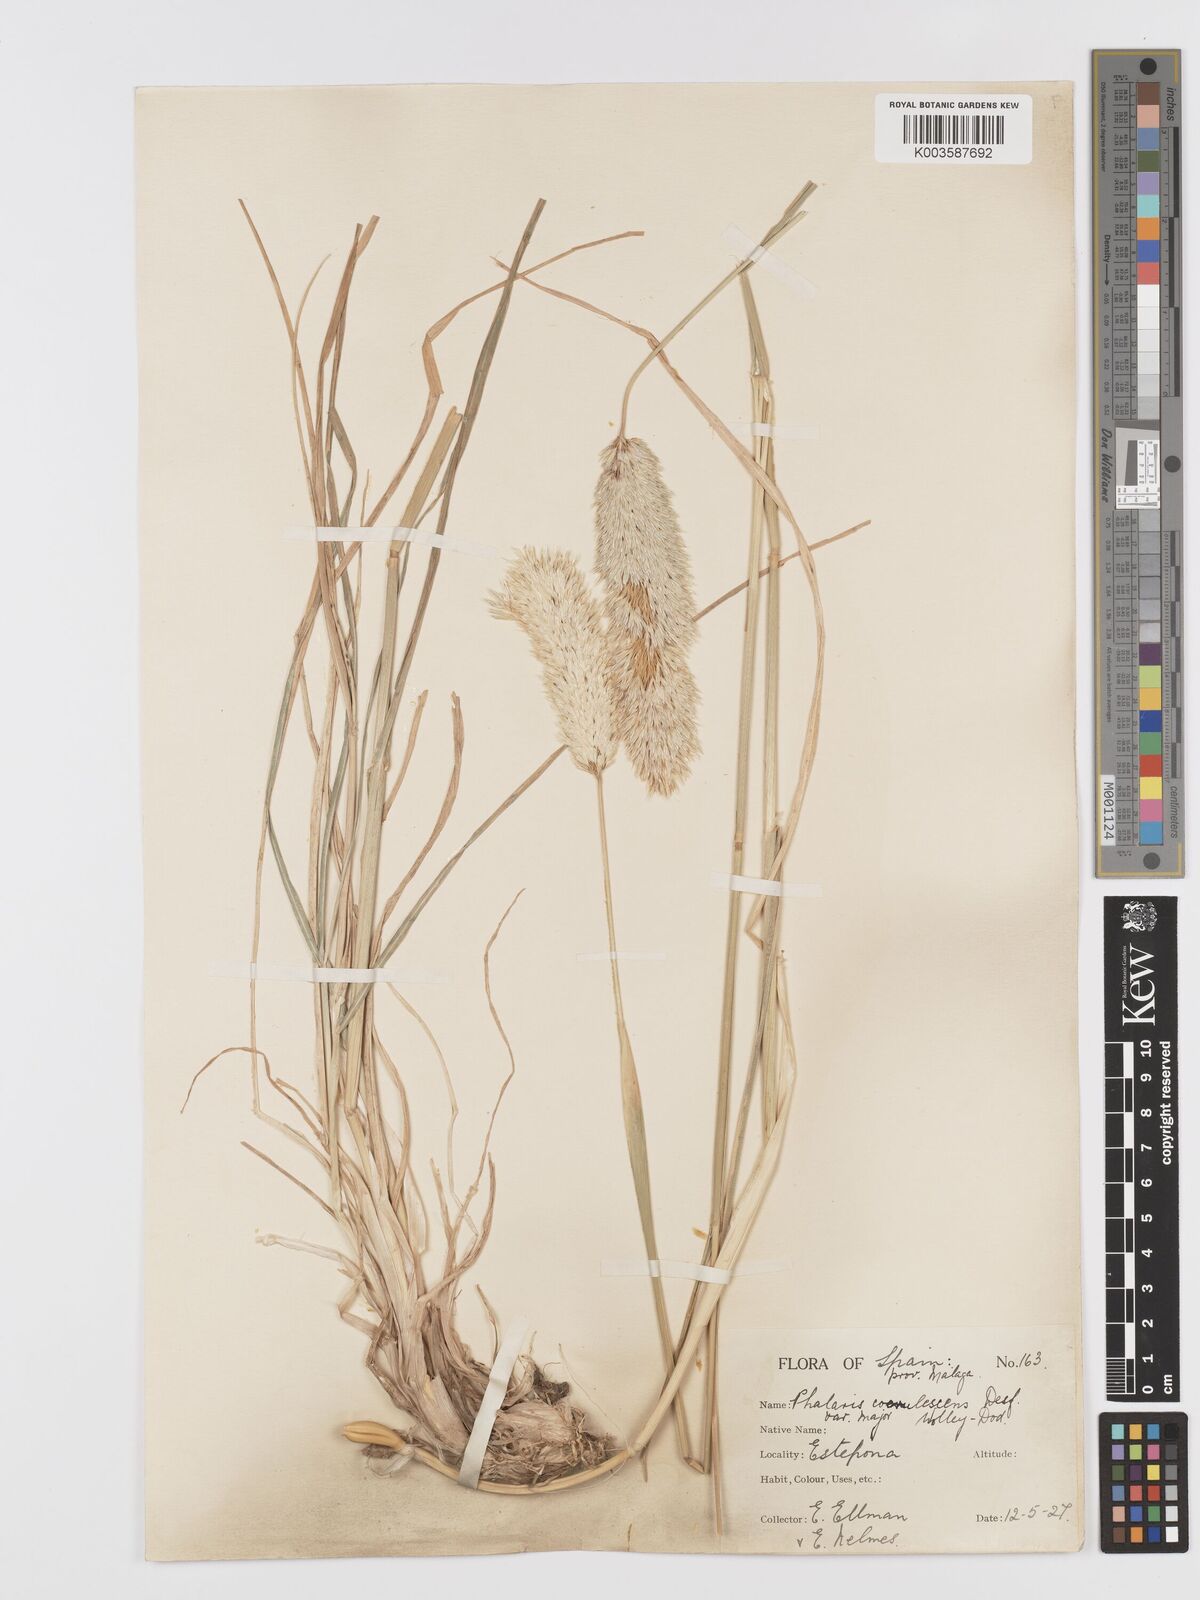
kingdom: Plantae
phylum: Tracheophyta
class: Liliopsida
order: Poales
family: Poaceae
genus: Phalaris
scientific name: Phalaris coerulescens
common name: Sunolgrass
